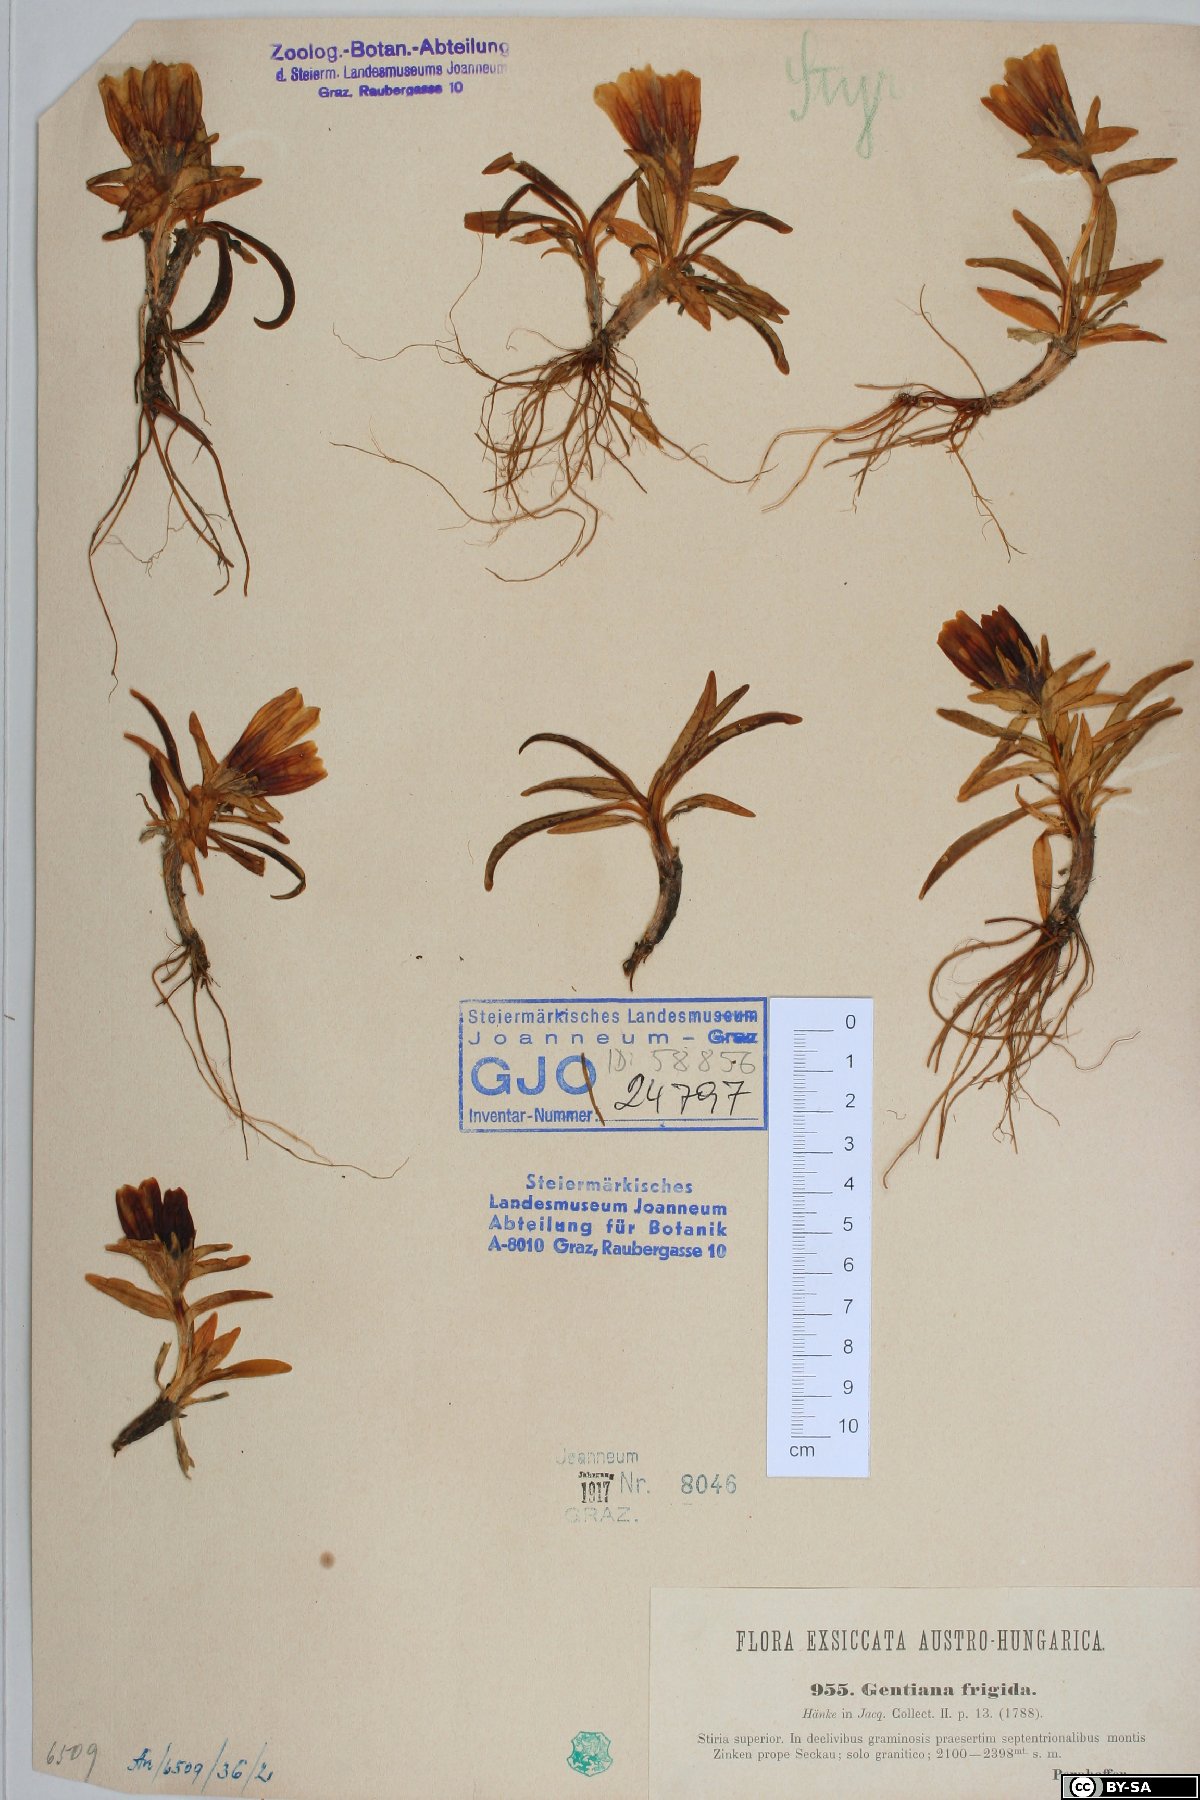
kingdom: Plantae
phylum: Tracheophyta
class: Magnoliopsida
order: Gentianales
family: Gentianaceae
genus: Gentiana
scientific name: Gentiana frigida
